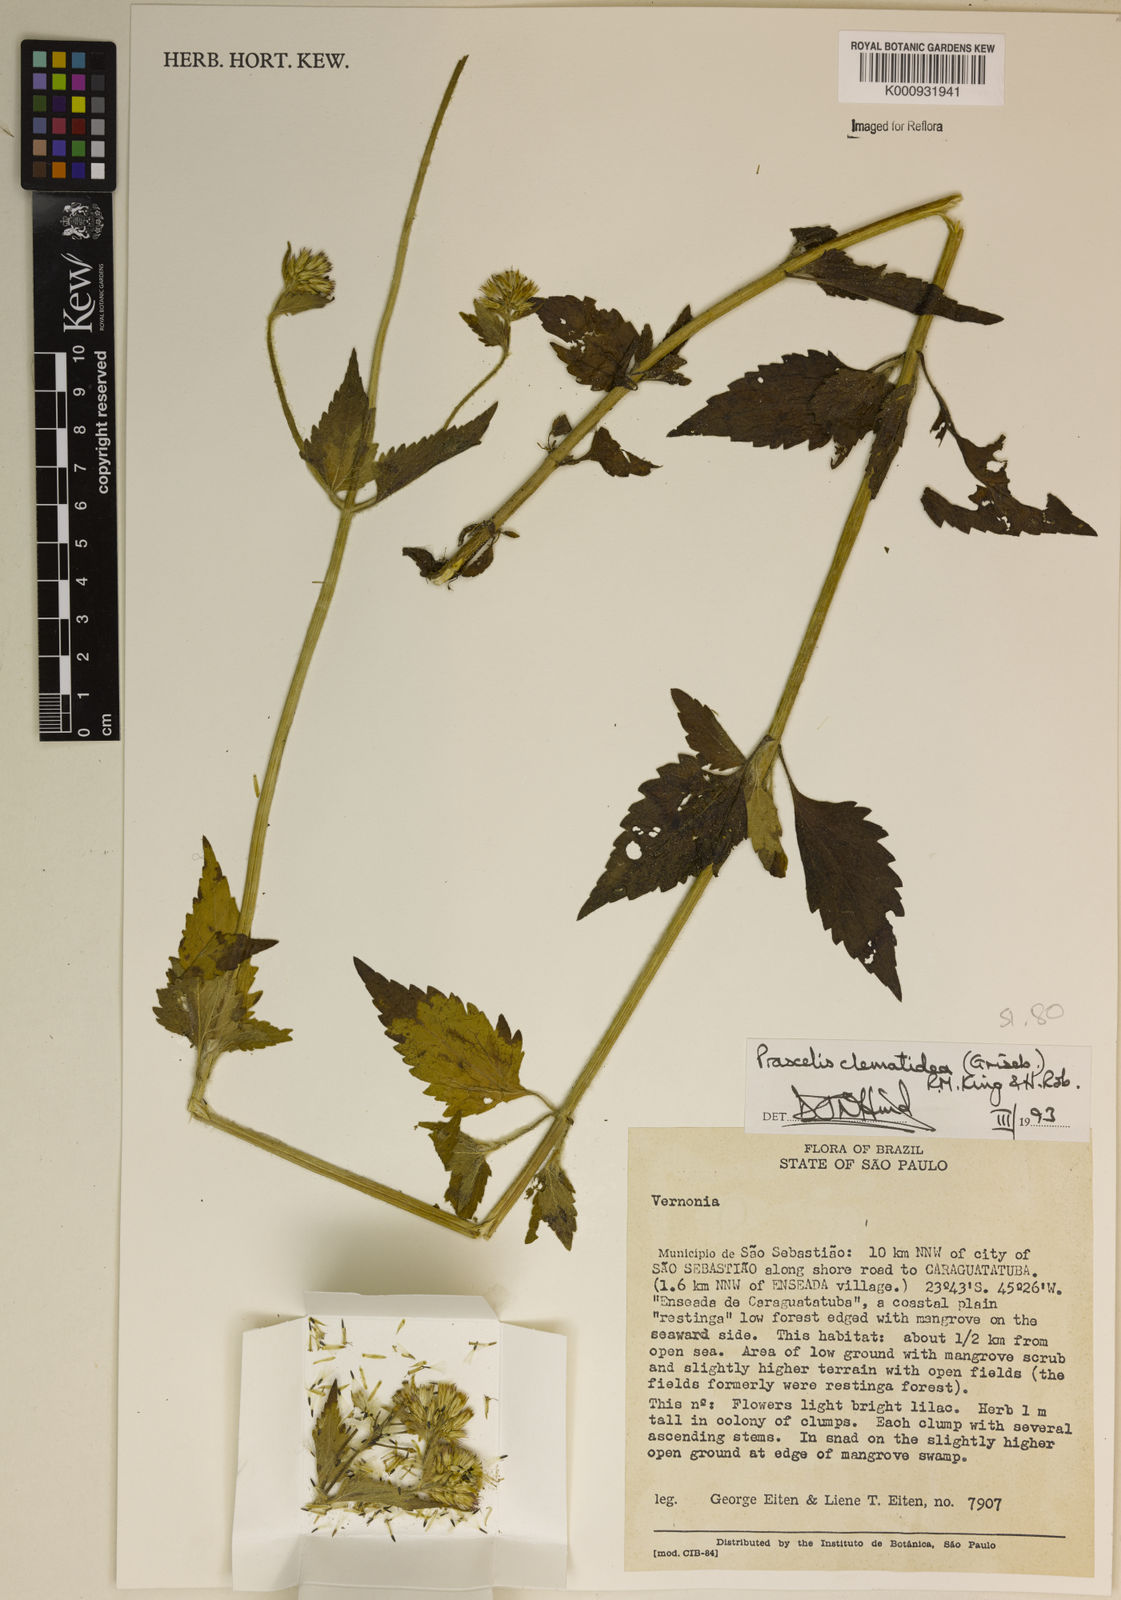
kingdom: Plantae
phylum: Tracheophyta
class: Magnoliopsida
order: Asterales
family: Asteraceae
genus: Praxelis
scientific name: Praxelis clematidea
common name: Praxelis
